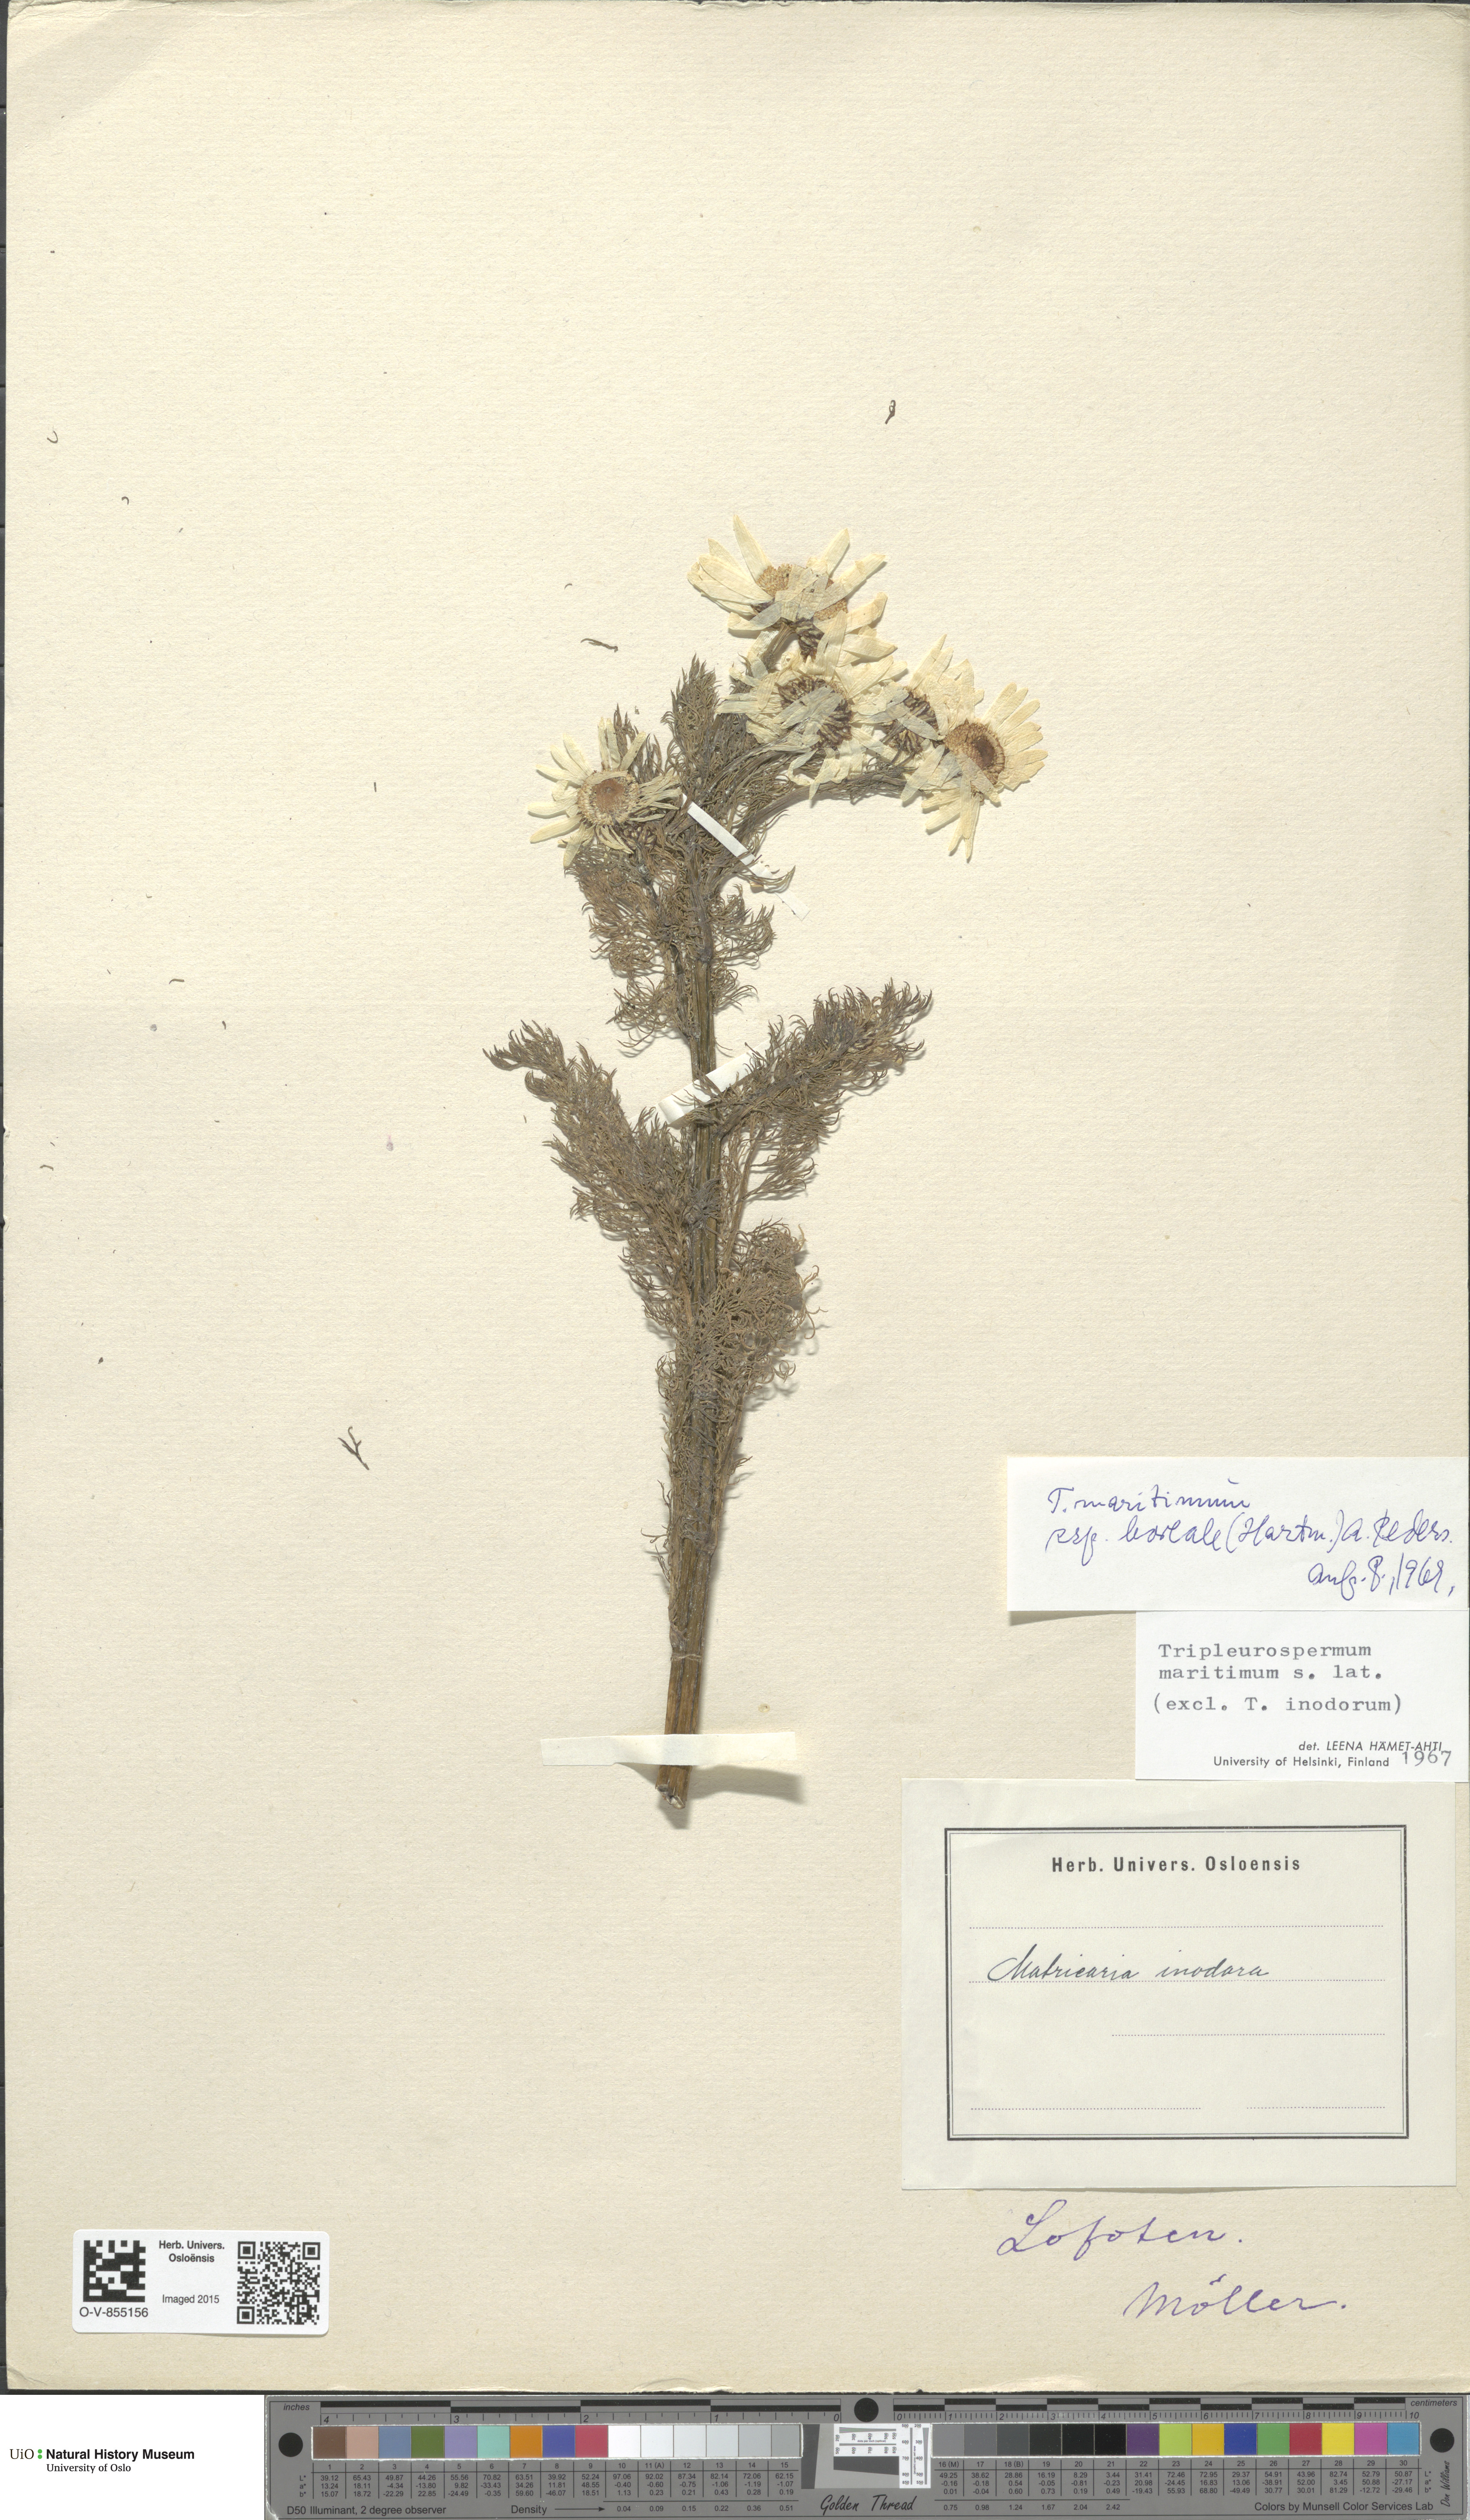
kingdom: Plantae
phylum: Tracheophyta
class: Magnoliopsida
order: Asterales
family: Asteraceae
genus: Tripleurospermum
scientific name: Tripleurospermum subpolare
